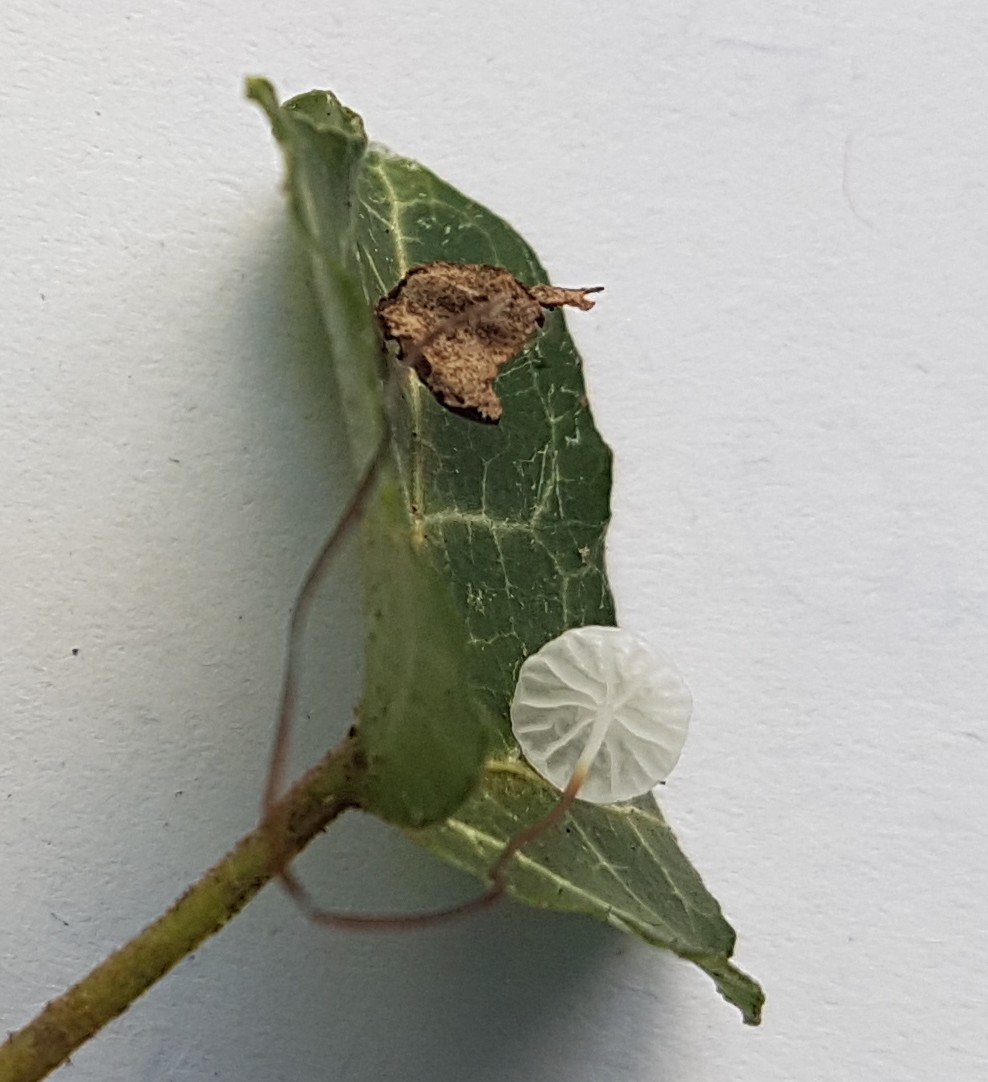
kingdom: Fungi
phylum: Basidiomycota
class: Agaricomycetes
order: Agaricales
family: Marasmiaceae
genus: Marasmius
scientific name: Marasmius epiphylloides
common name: vedbend-bruskhat
